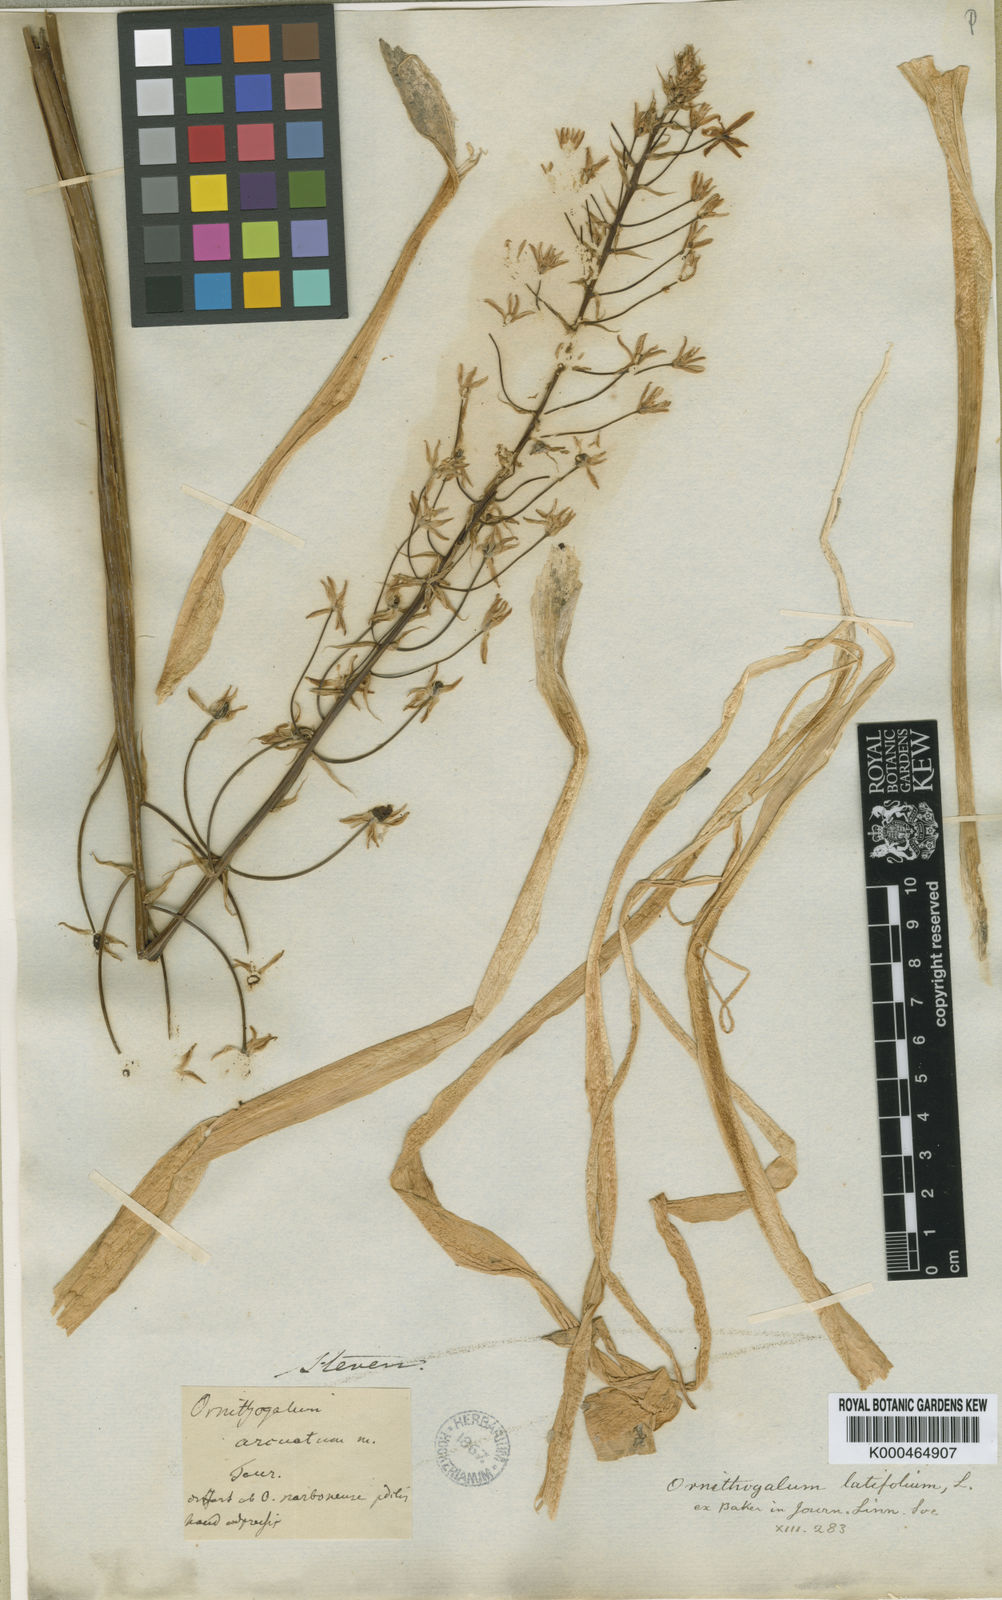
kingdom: Plantae
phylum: Tracheophyta
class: Liliopsida
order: Asparagales
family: Asparagaceae
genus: Ornithogalum
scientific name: Ornithogalum narbonense
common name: Bath-asparagus
